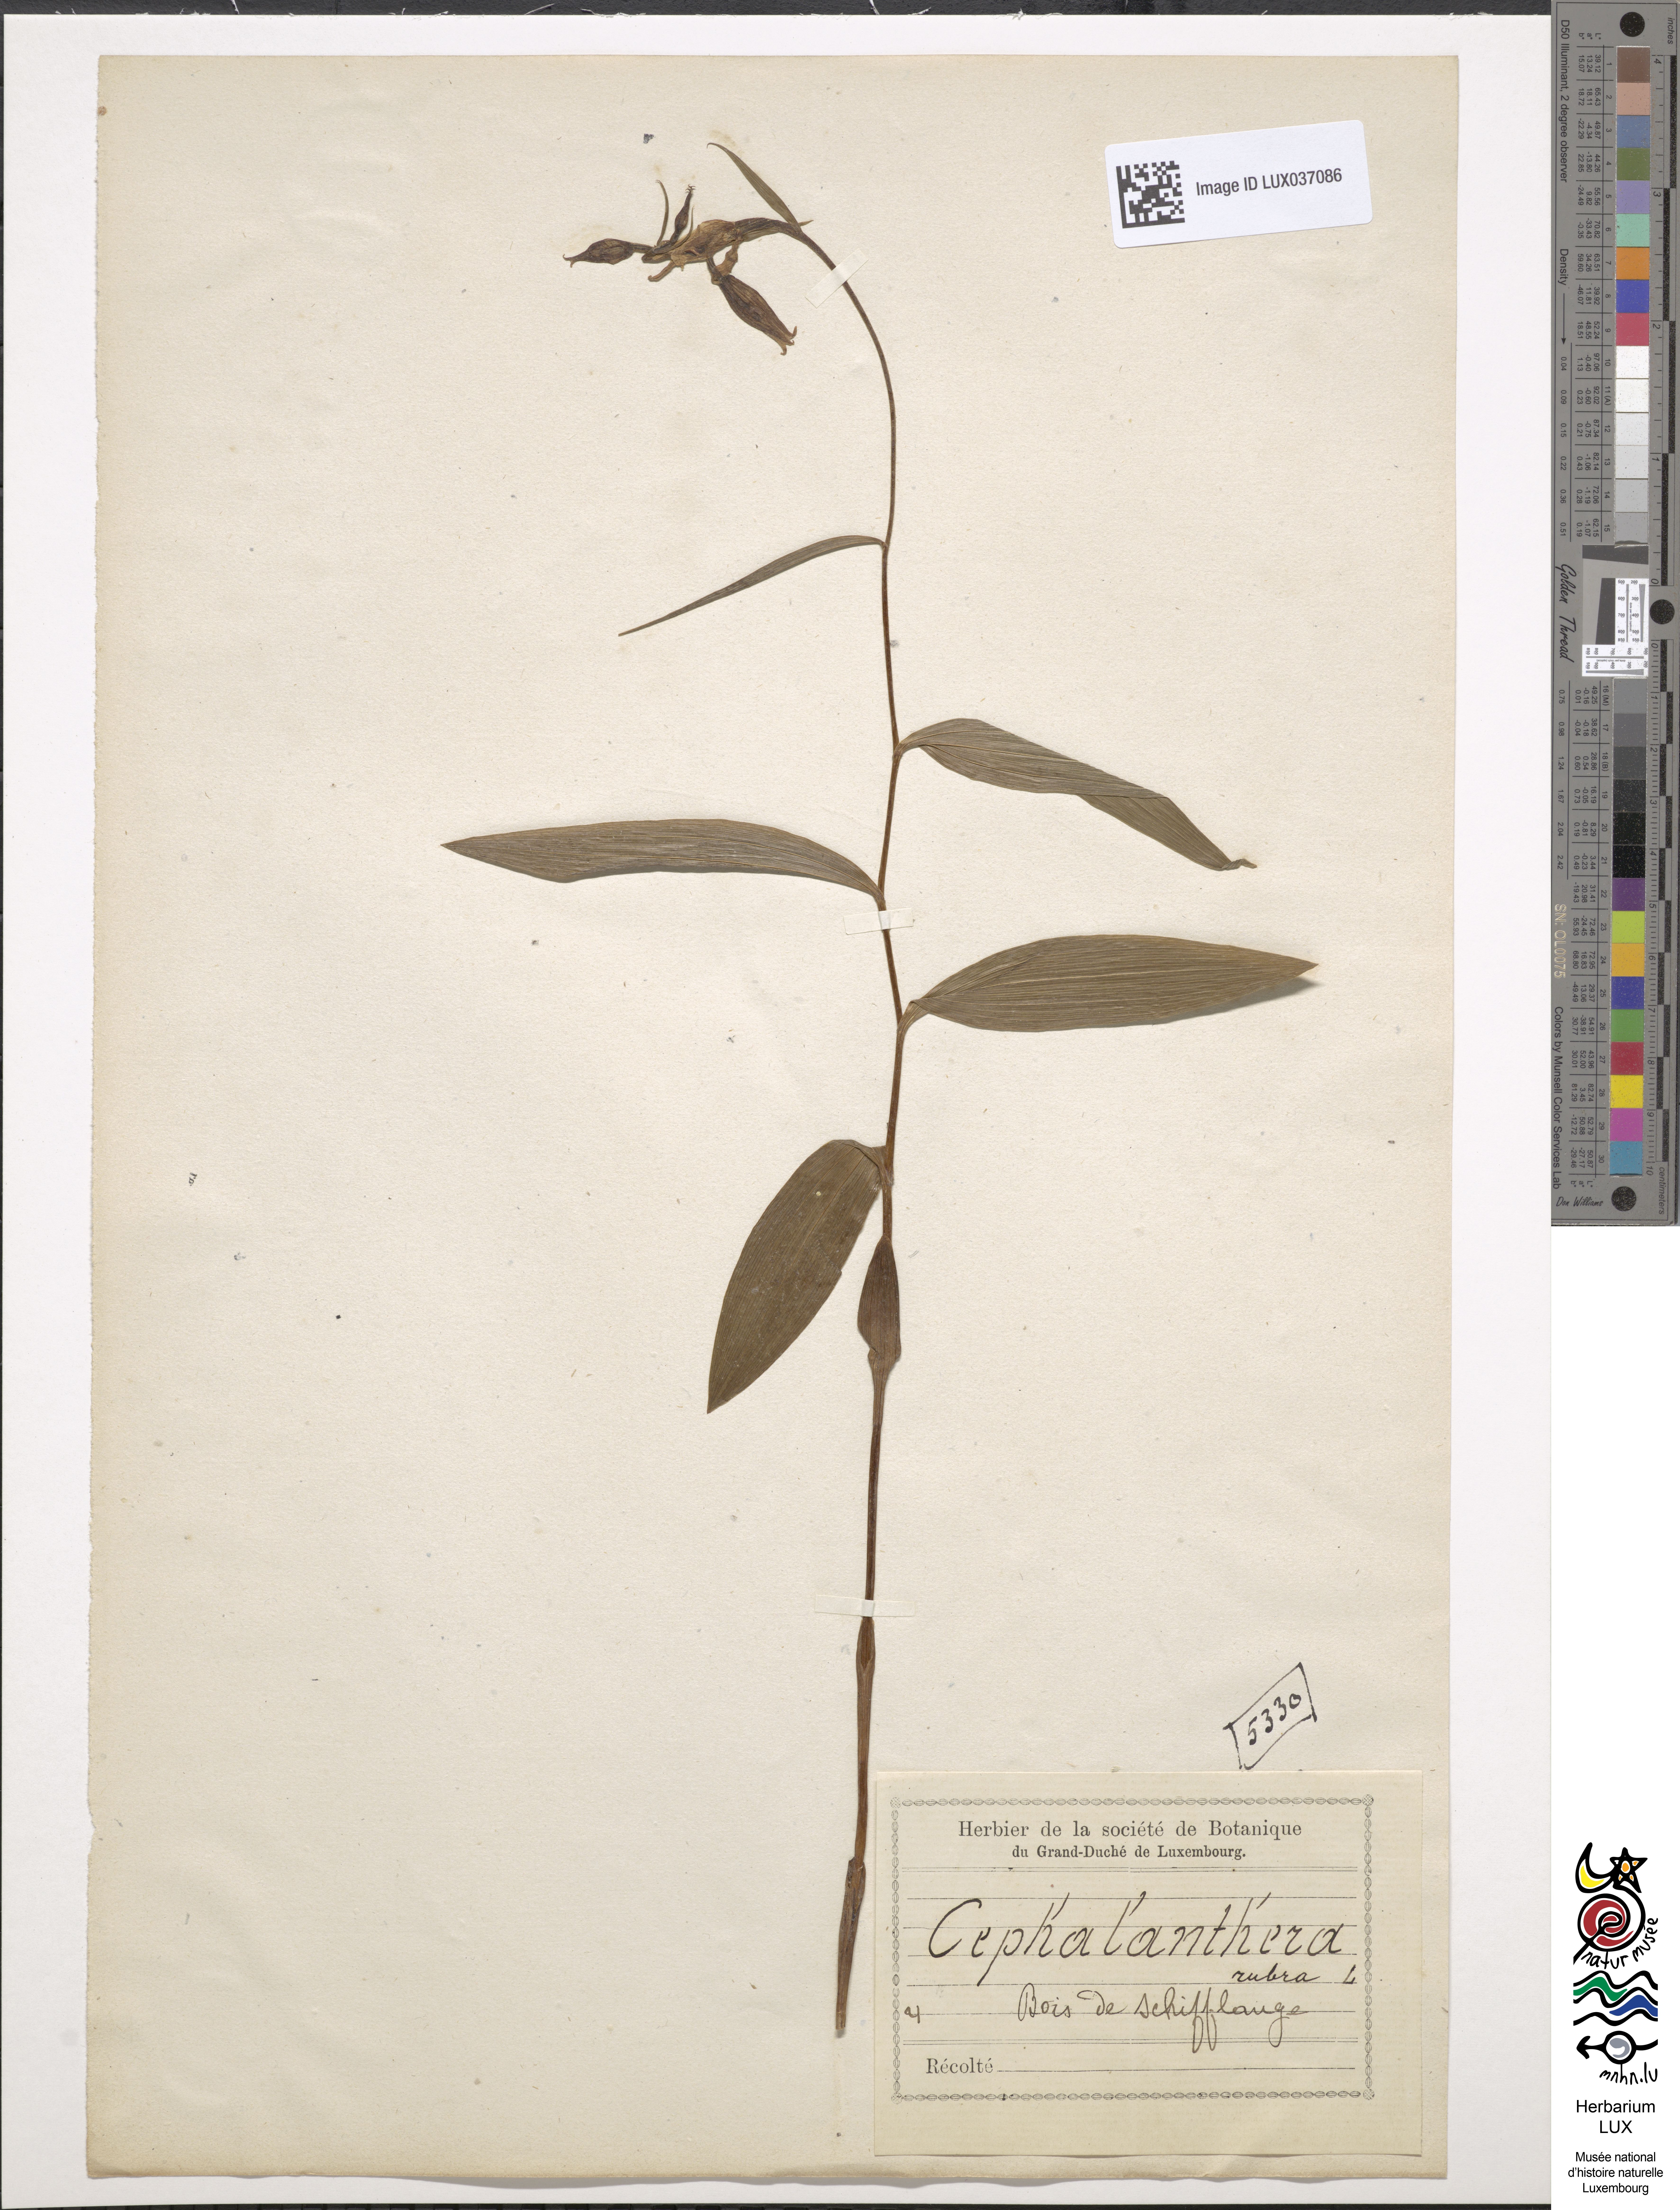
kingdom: Plantae
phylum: Tracheophyta
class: Liliopsida
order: Asparagales
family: Orchidaceae
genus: Cephalanthera
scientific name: Cephalanthera rubra
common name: Red helleborine
